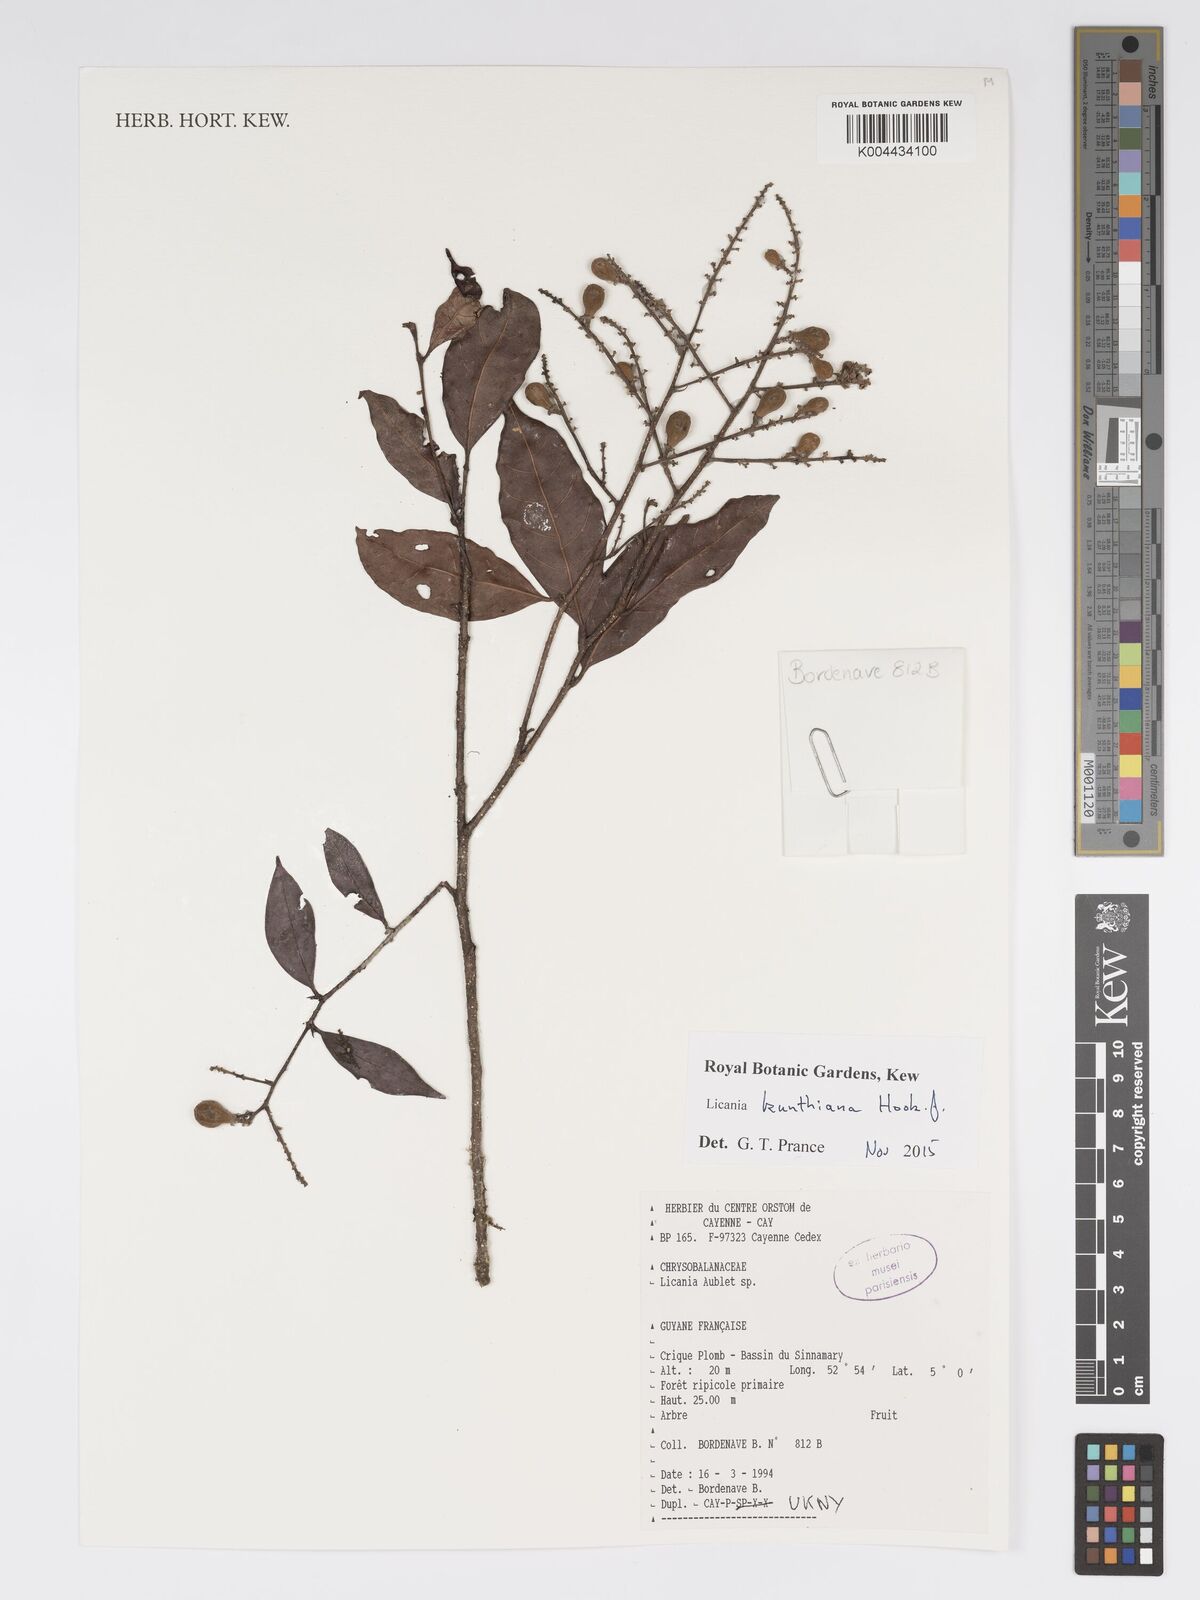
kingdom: Plantae
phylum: Tracheophyta
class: Magnoliopsida
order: Malpighiales
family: Chrysobalanaceae
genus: Licania
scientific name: Licania kunthiana
